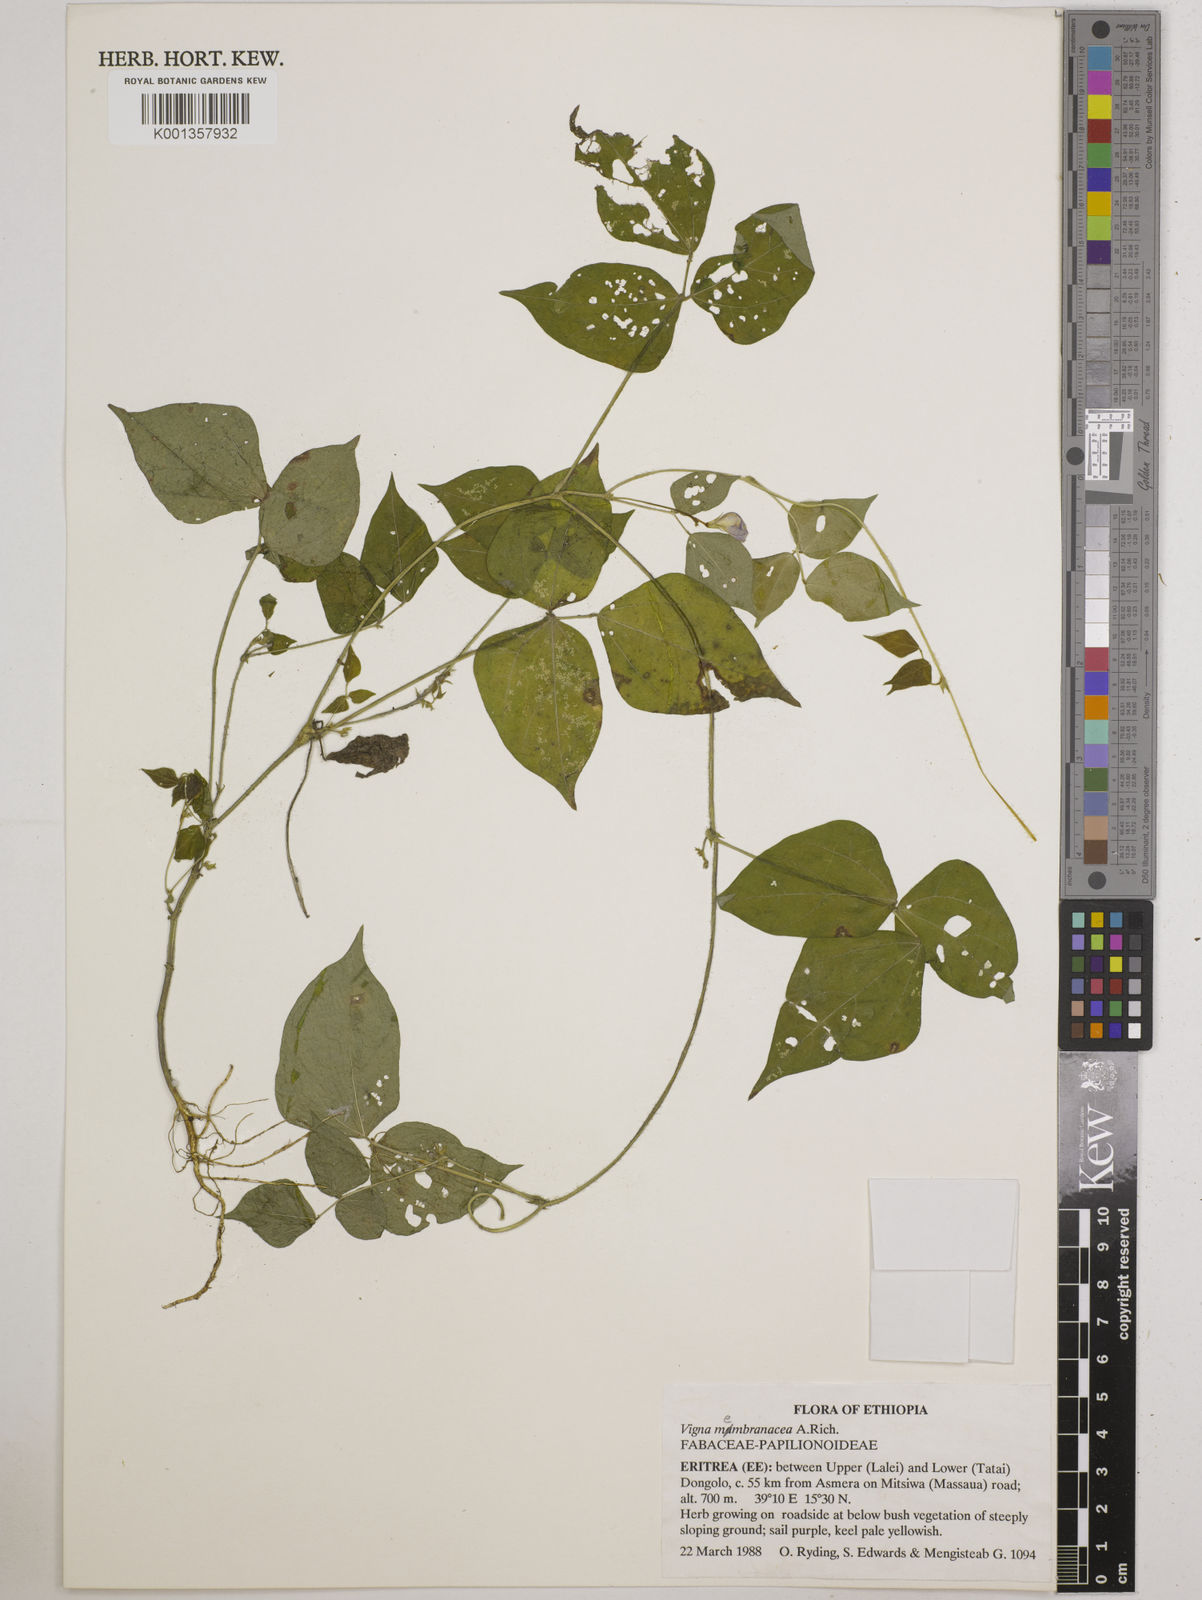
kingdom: Plantae
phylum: Tracheophyta
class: Magnoliopsida
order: Fabales
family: Fabaceae
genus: Vigna
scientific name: Vigna membranacea
